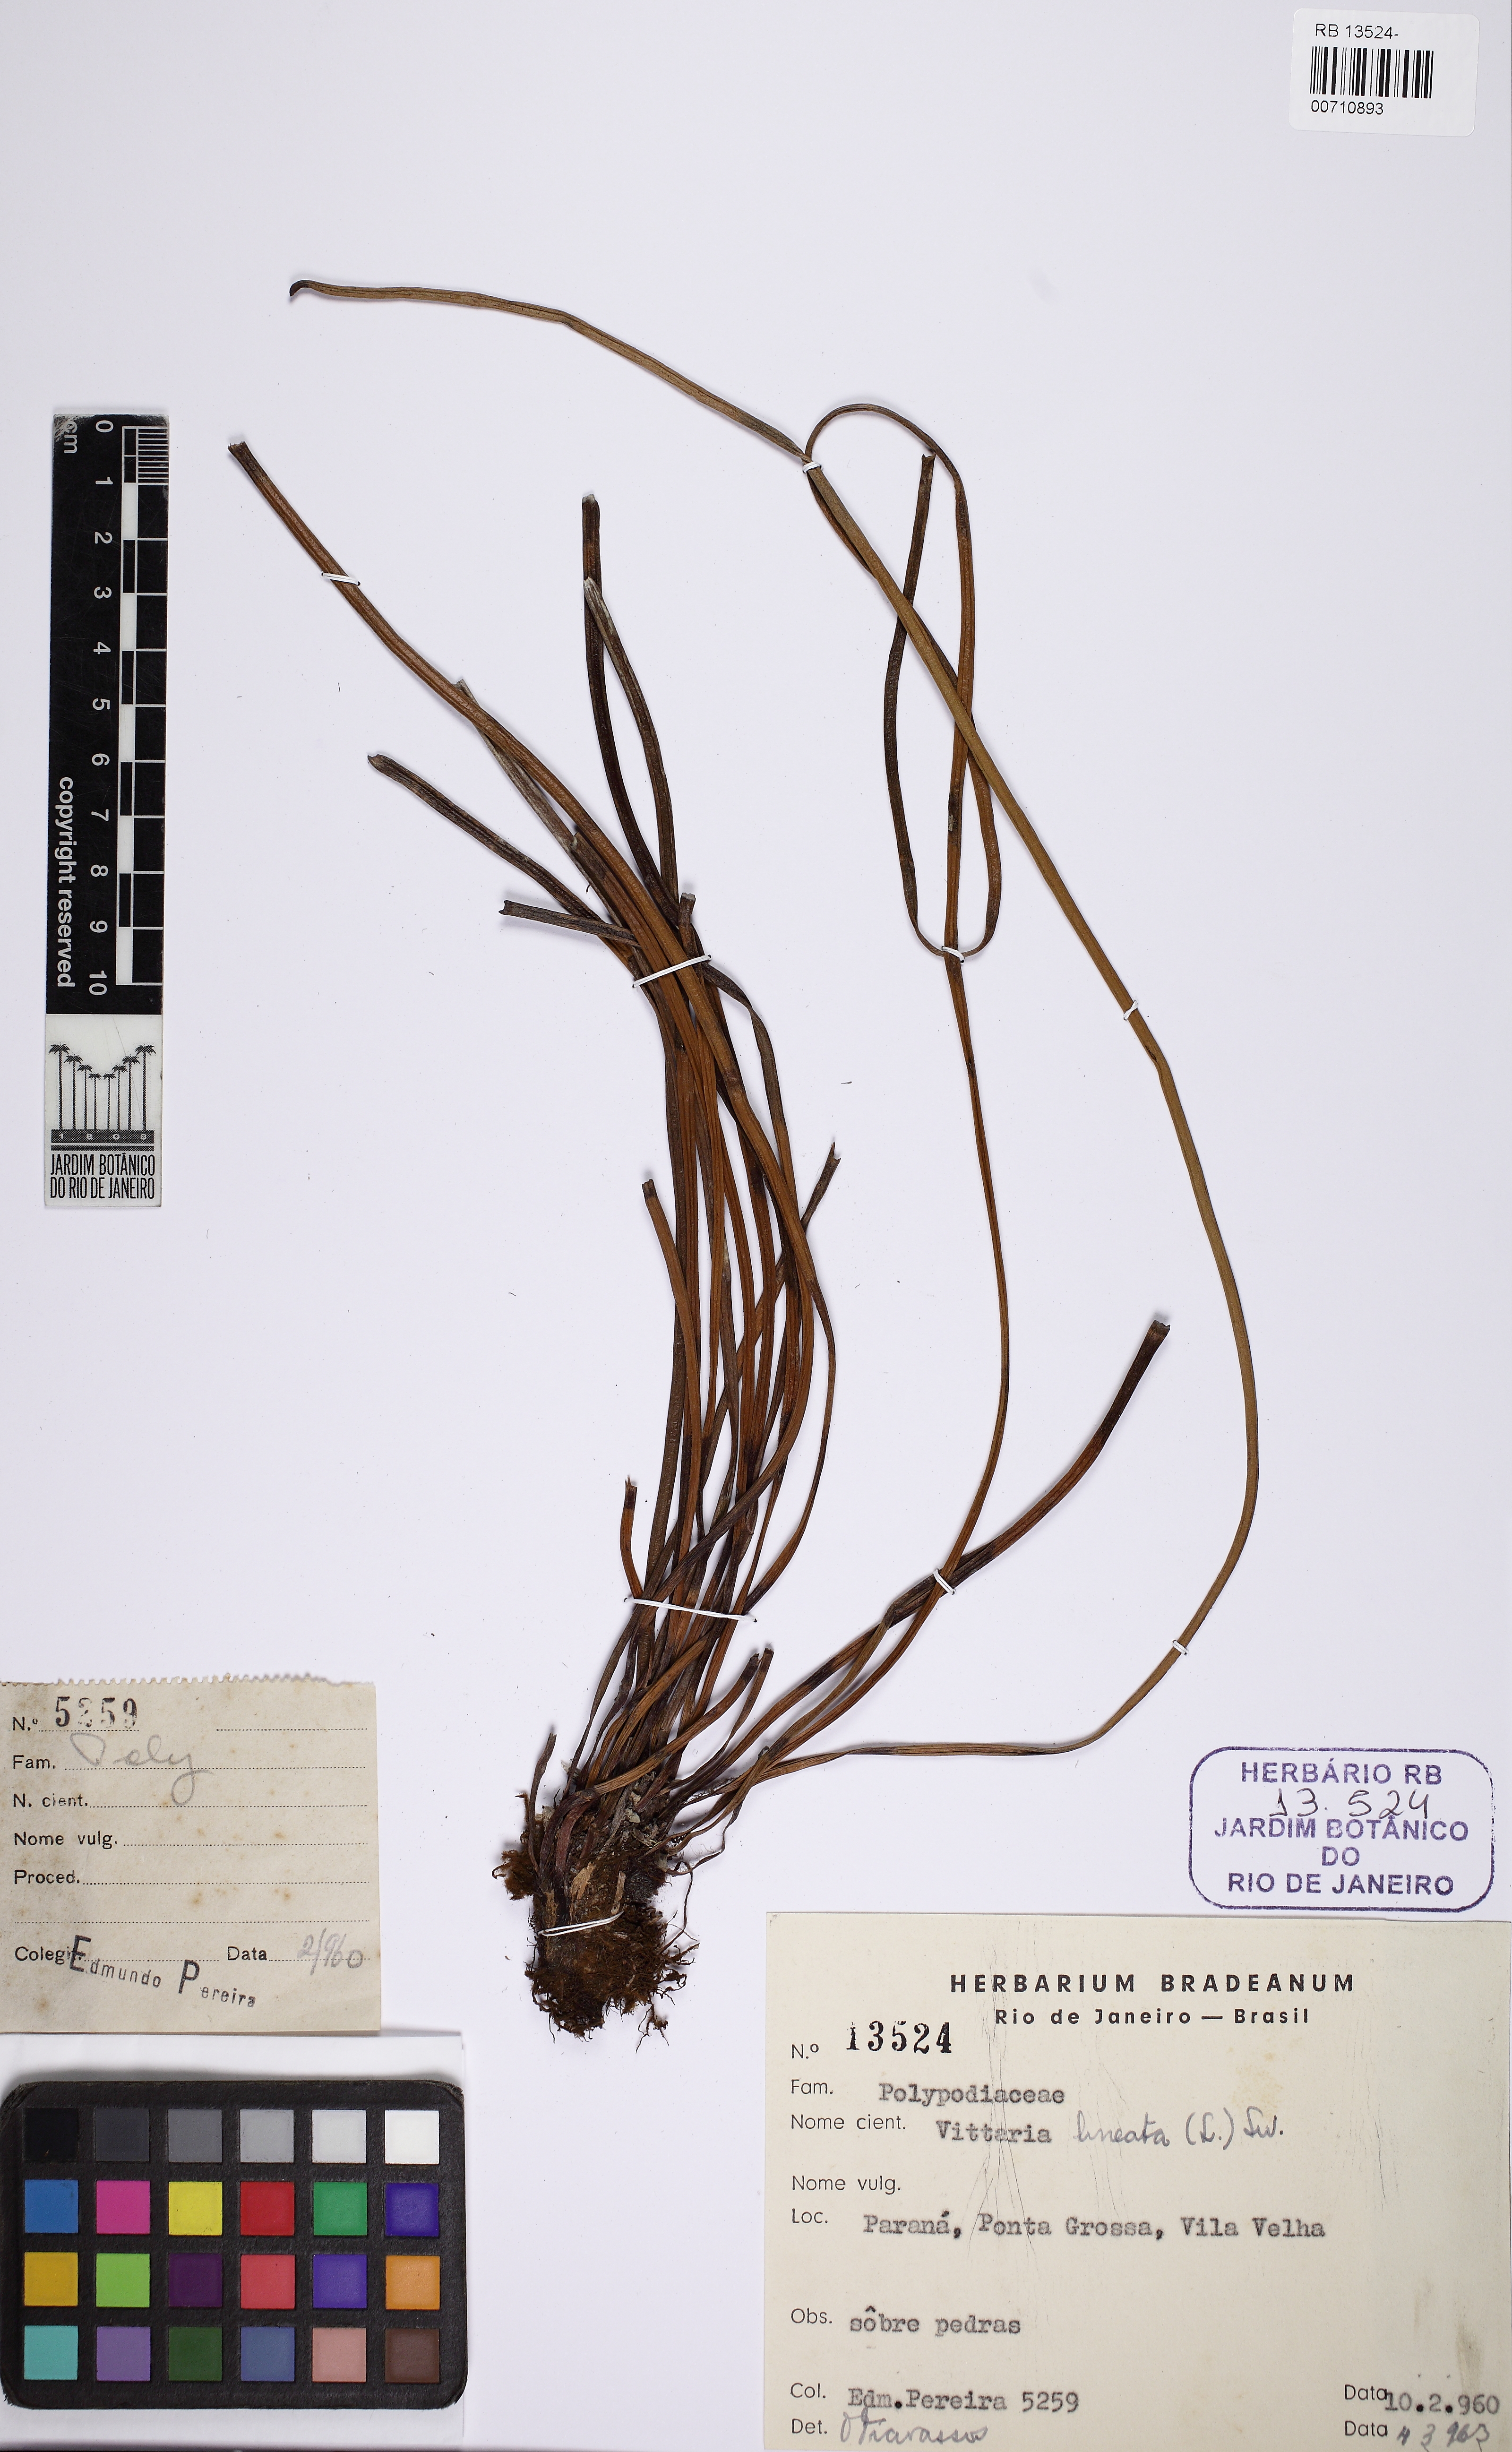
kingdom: Plantae
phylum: Tracheophyta
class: Polypodiopsida
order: Polypodiales
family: Pteridaceae
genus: Vittaria
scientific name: Vittaria lineata
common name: Shoestring fern
